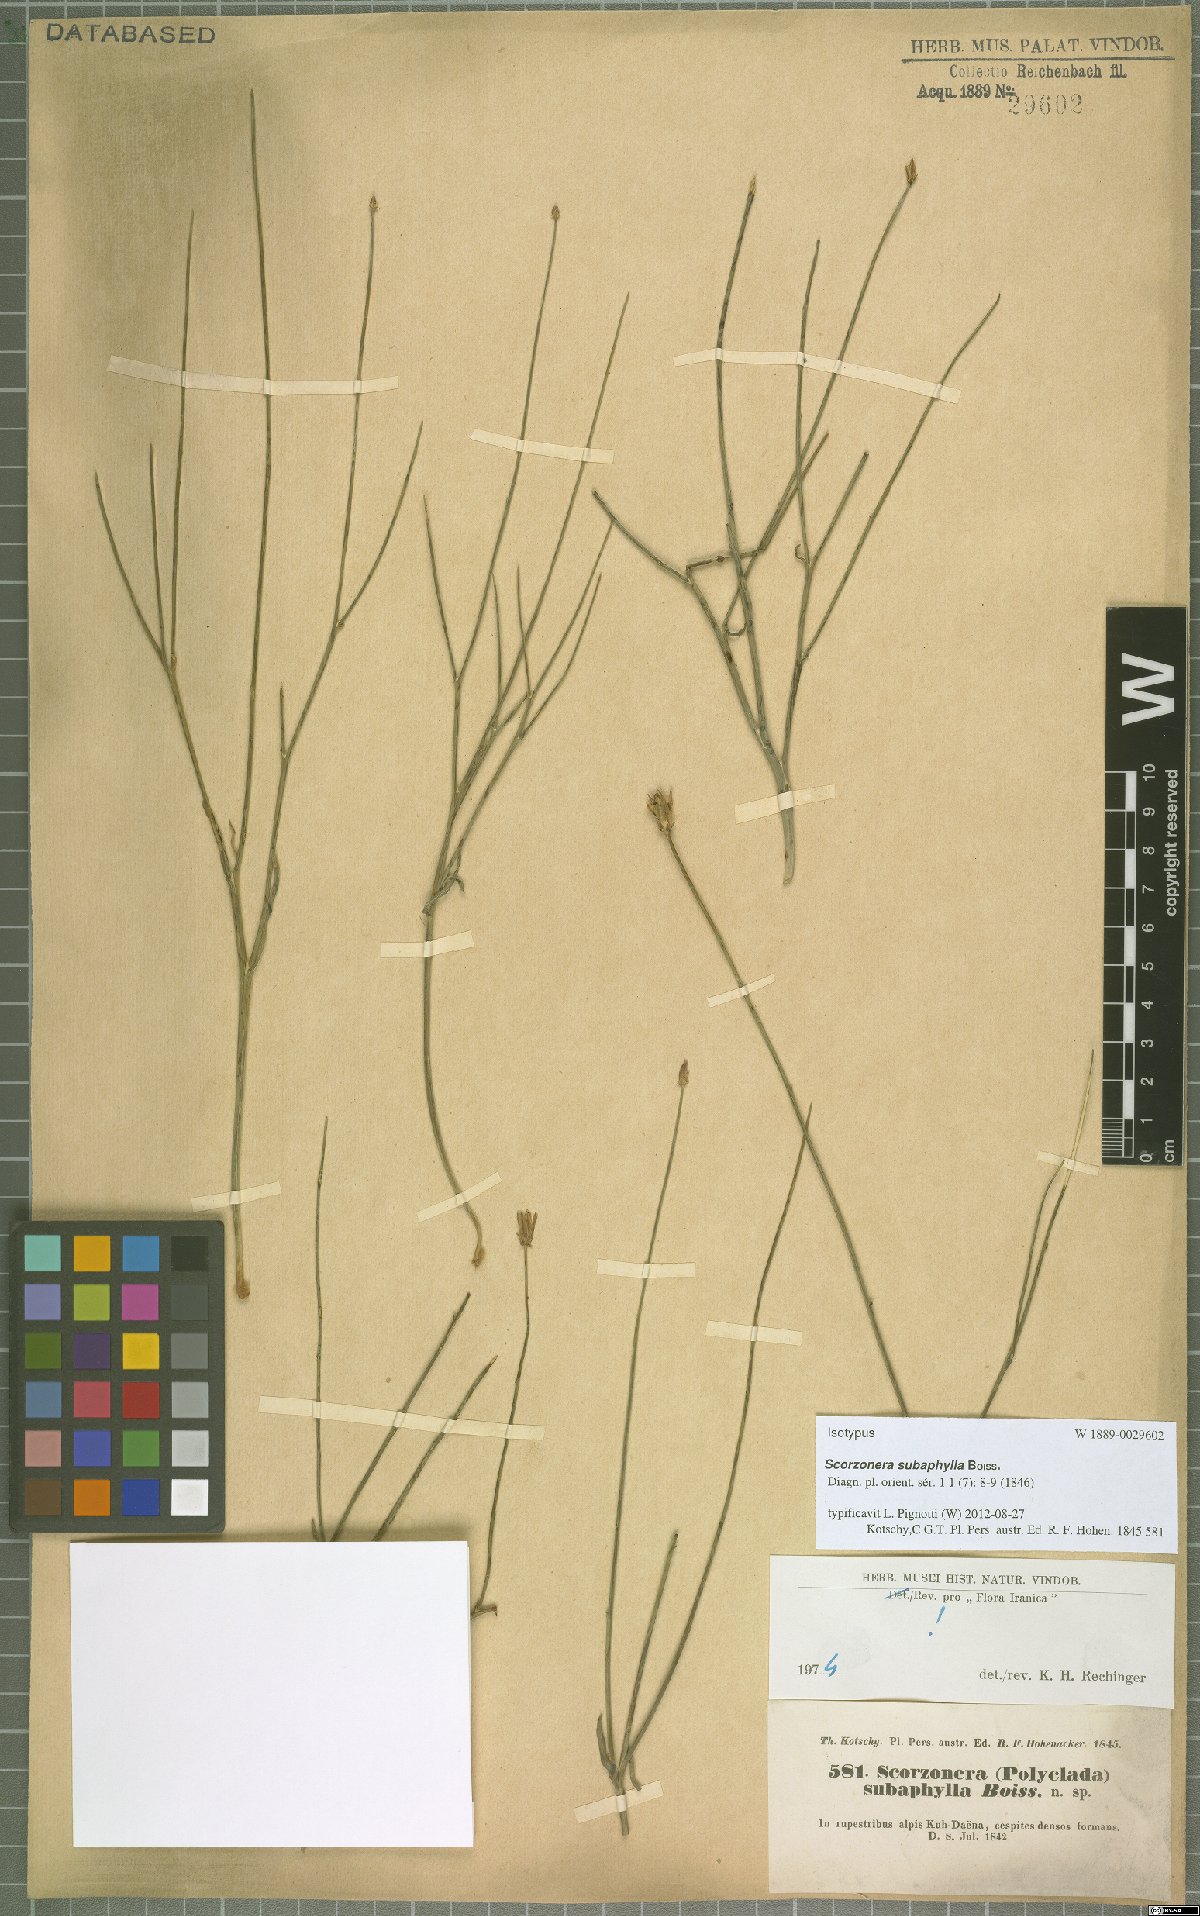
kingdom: Plantae
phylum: Tracheophyta
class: Magnoliopsida
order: Asterales
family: Asteraceae
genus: Scorzonera
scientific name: Scorzonera subaphylla
